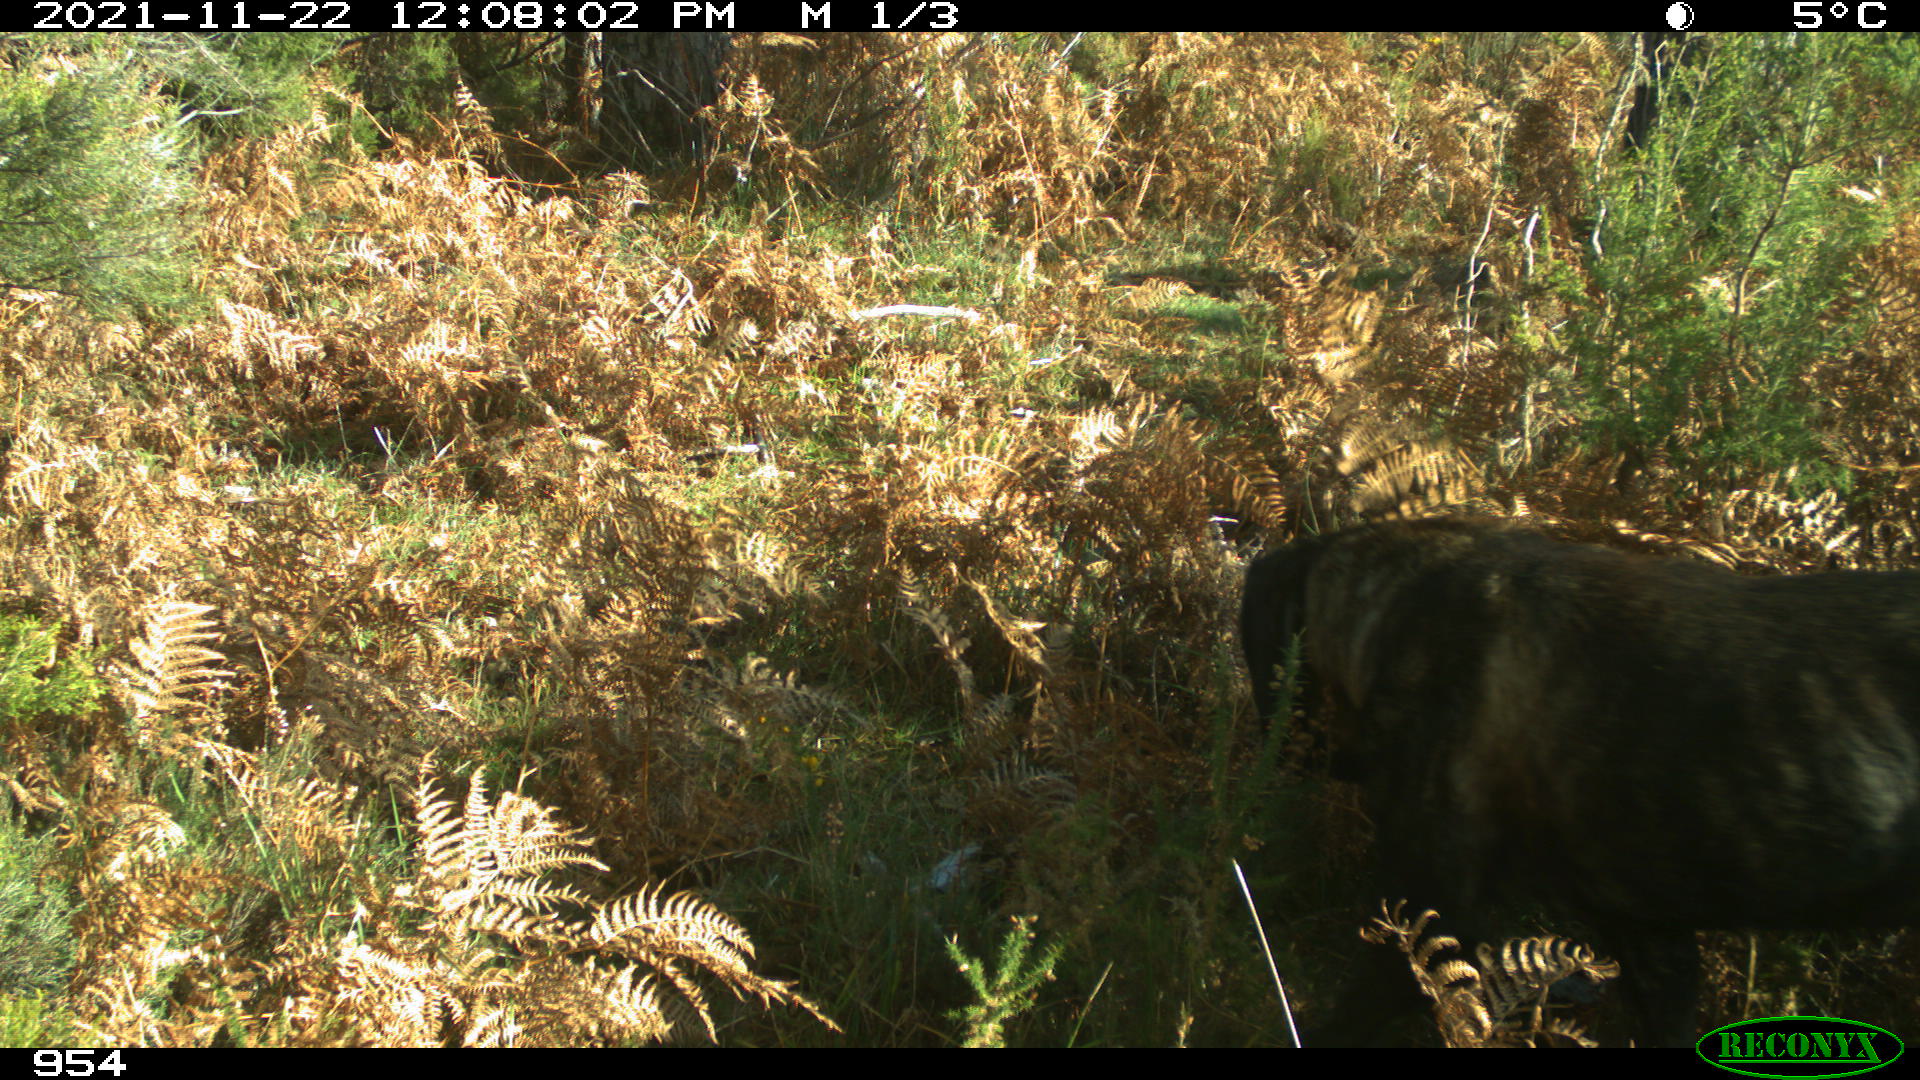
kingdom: Animalia
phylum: Chordata
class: Mammalia
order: Carnivora
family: Canidae
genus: Canis
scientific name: Canis lupus
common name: Gray wolf
